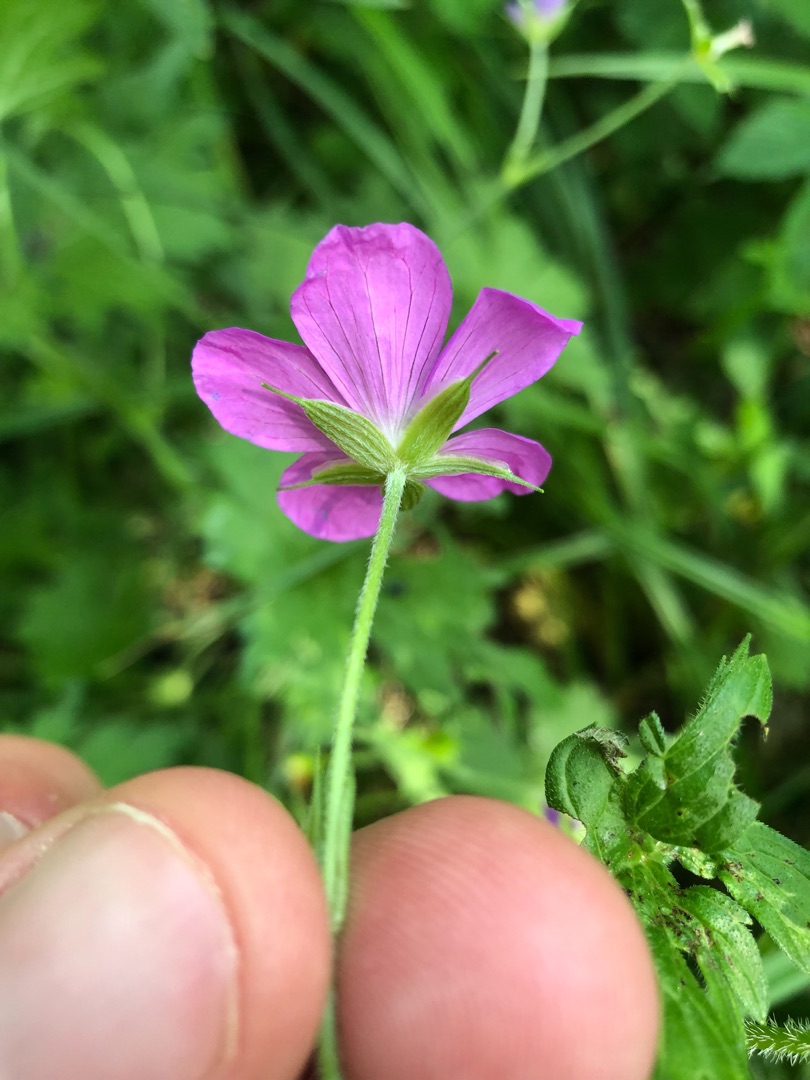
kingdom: Plantae
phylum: Tracheophyta
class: Magnoliopsida
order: Geraniales
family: Geraniaceae
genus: Geranium
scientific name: Geranium palustre
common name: Kær-storkenæb
